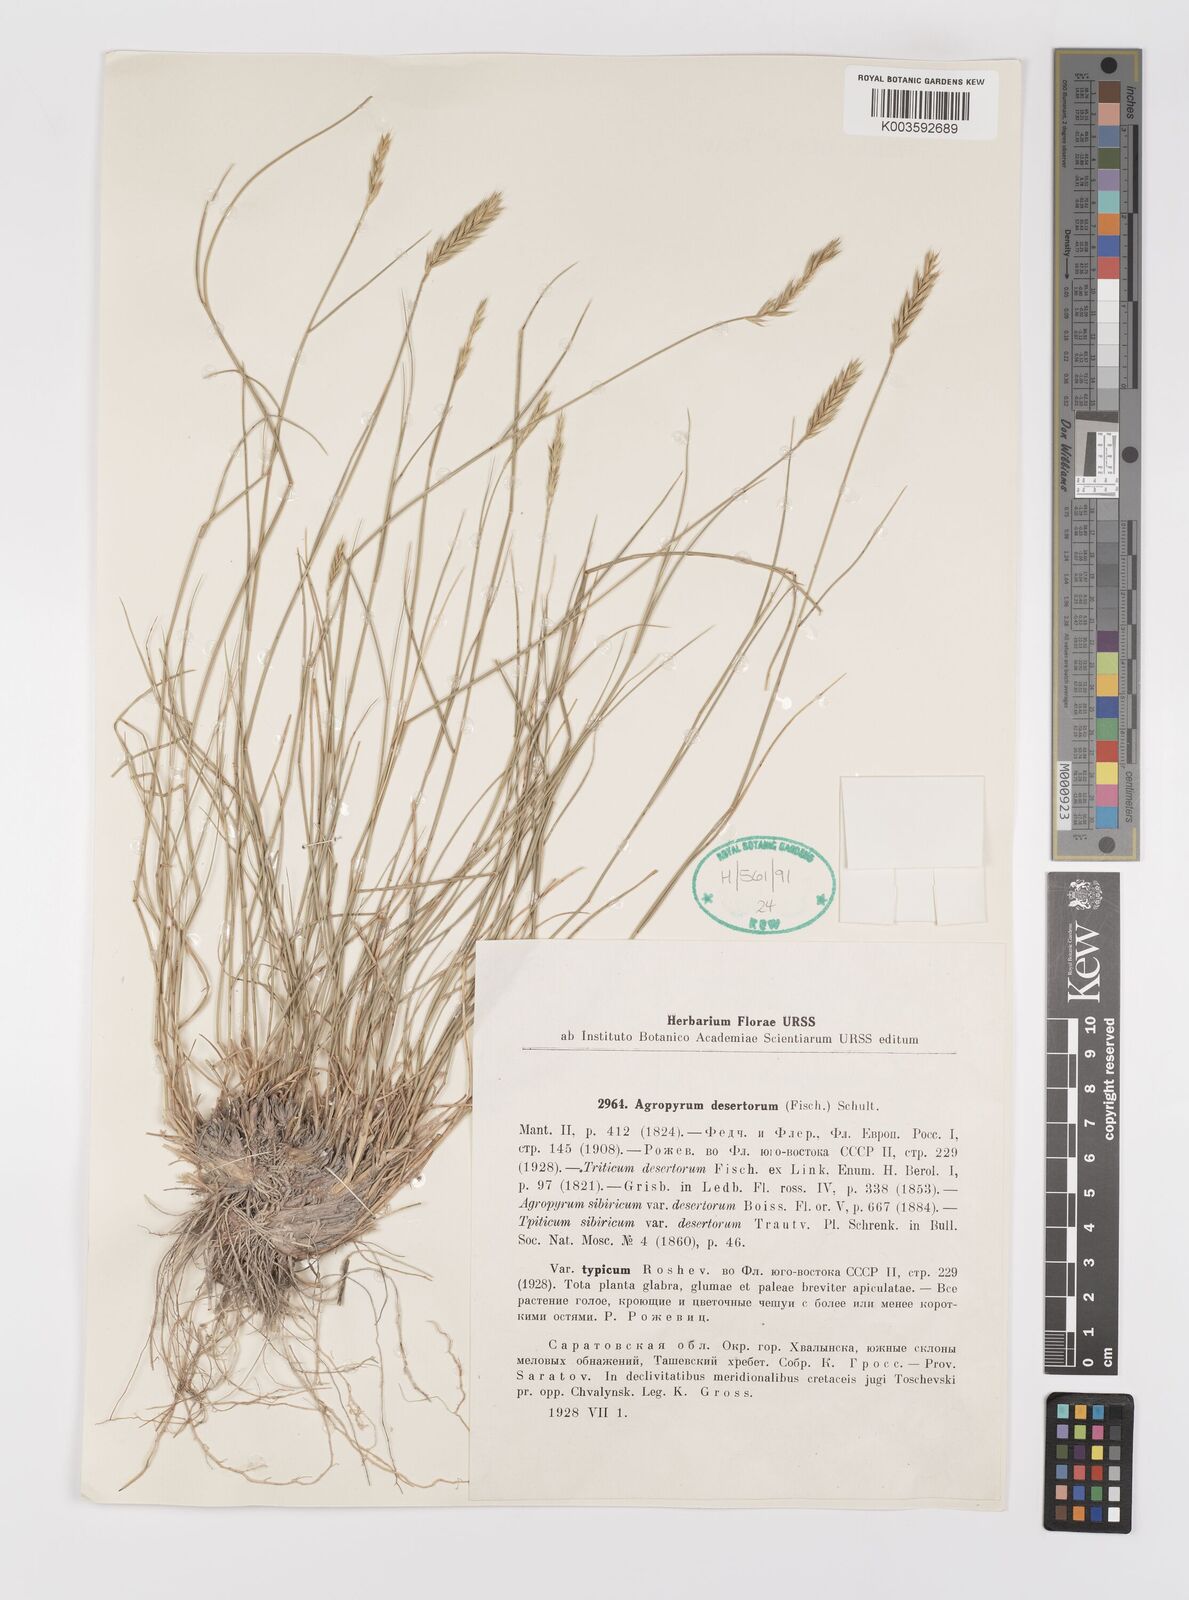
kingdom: Plantae
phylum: Tracheophyta
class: Liliopsida
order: Poales
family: Poaceae
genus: Agropyron
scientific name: Agropyron desertorum
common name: Desert wheatgrass
